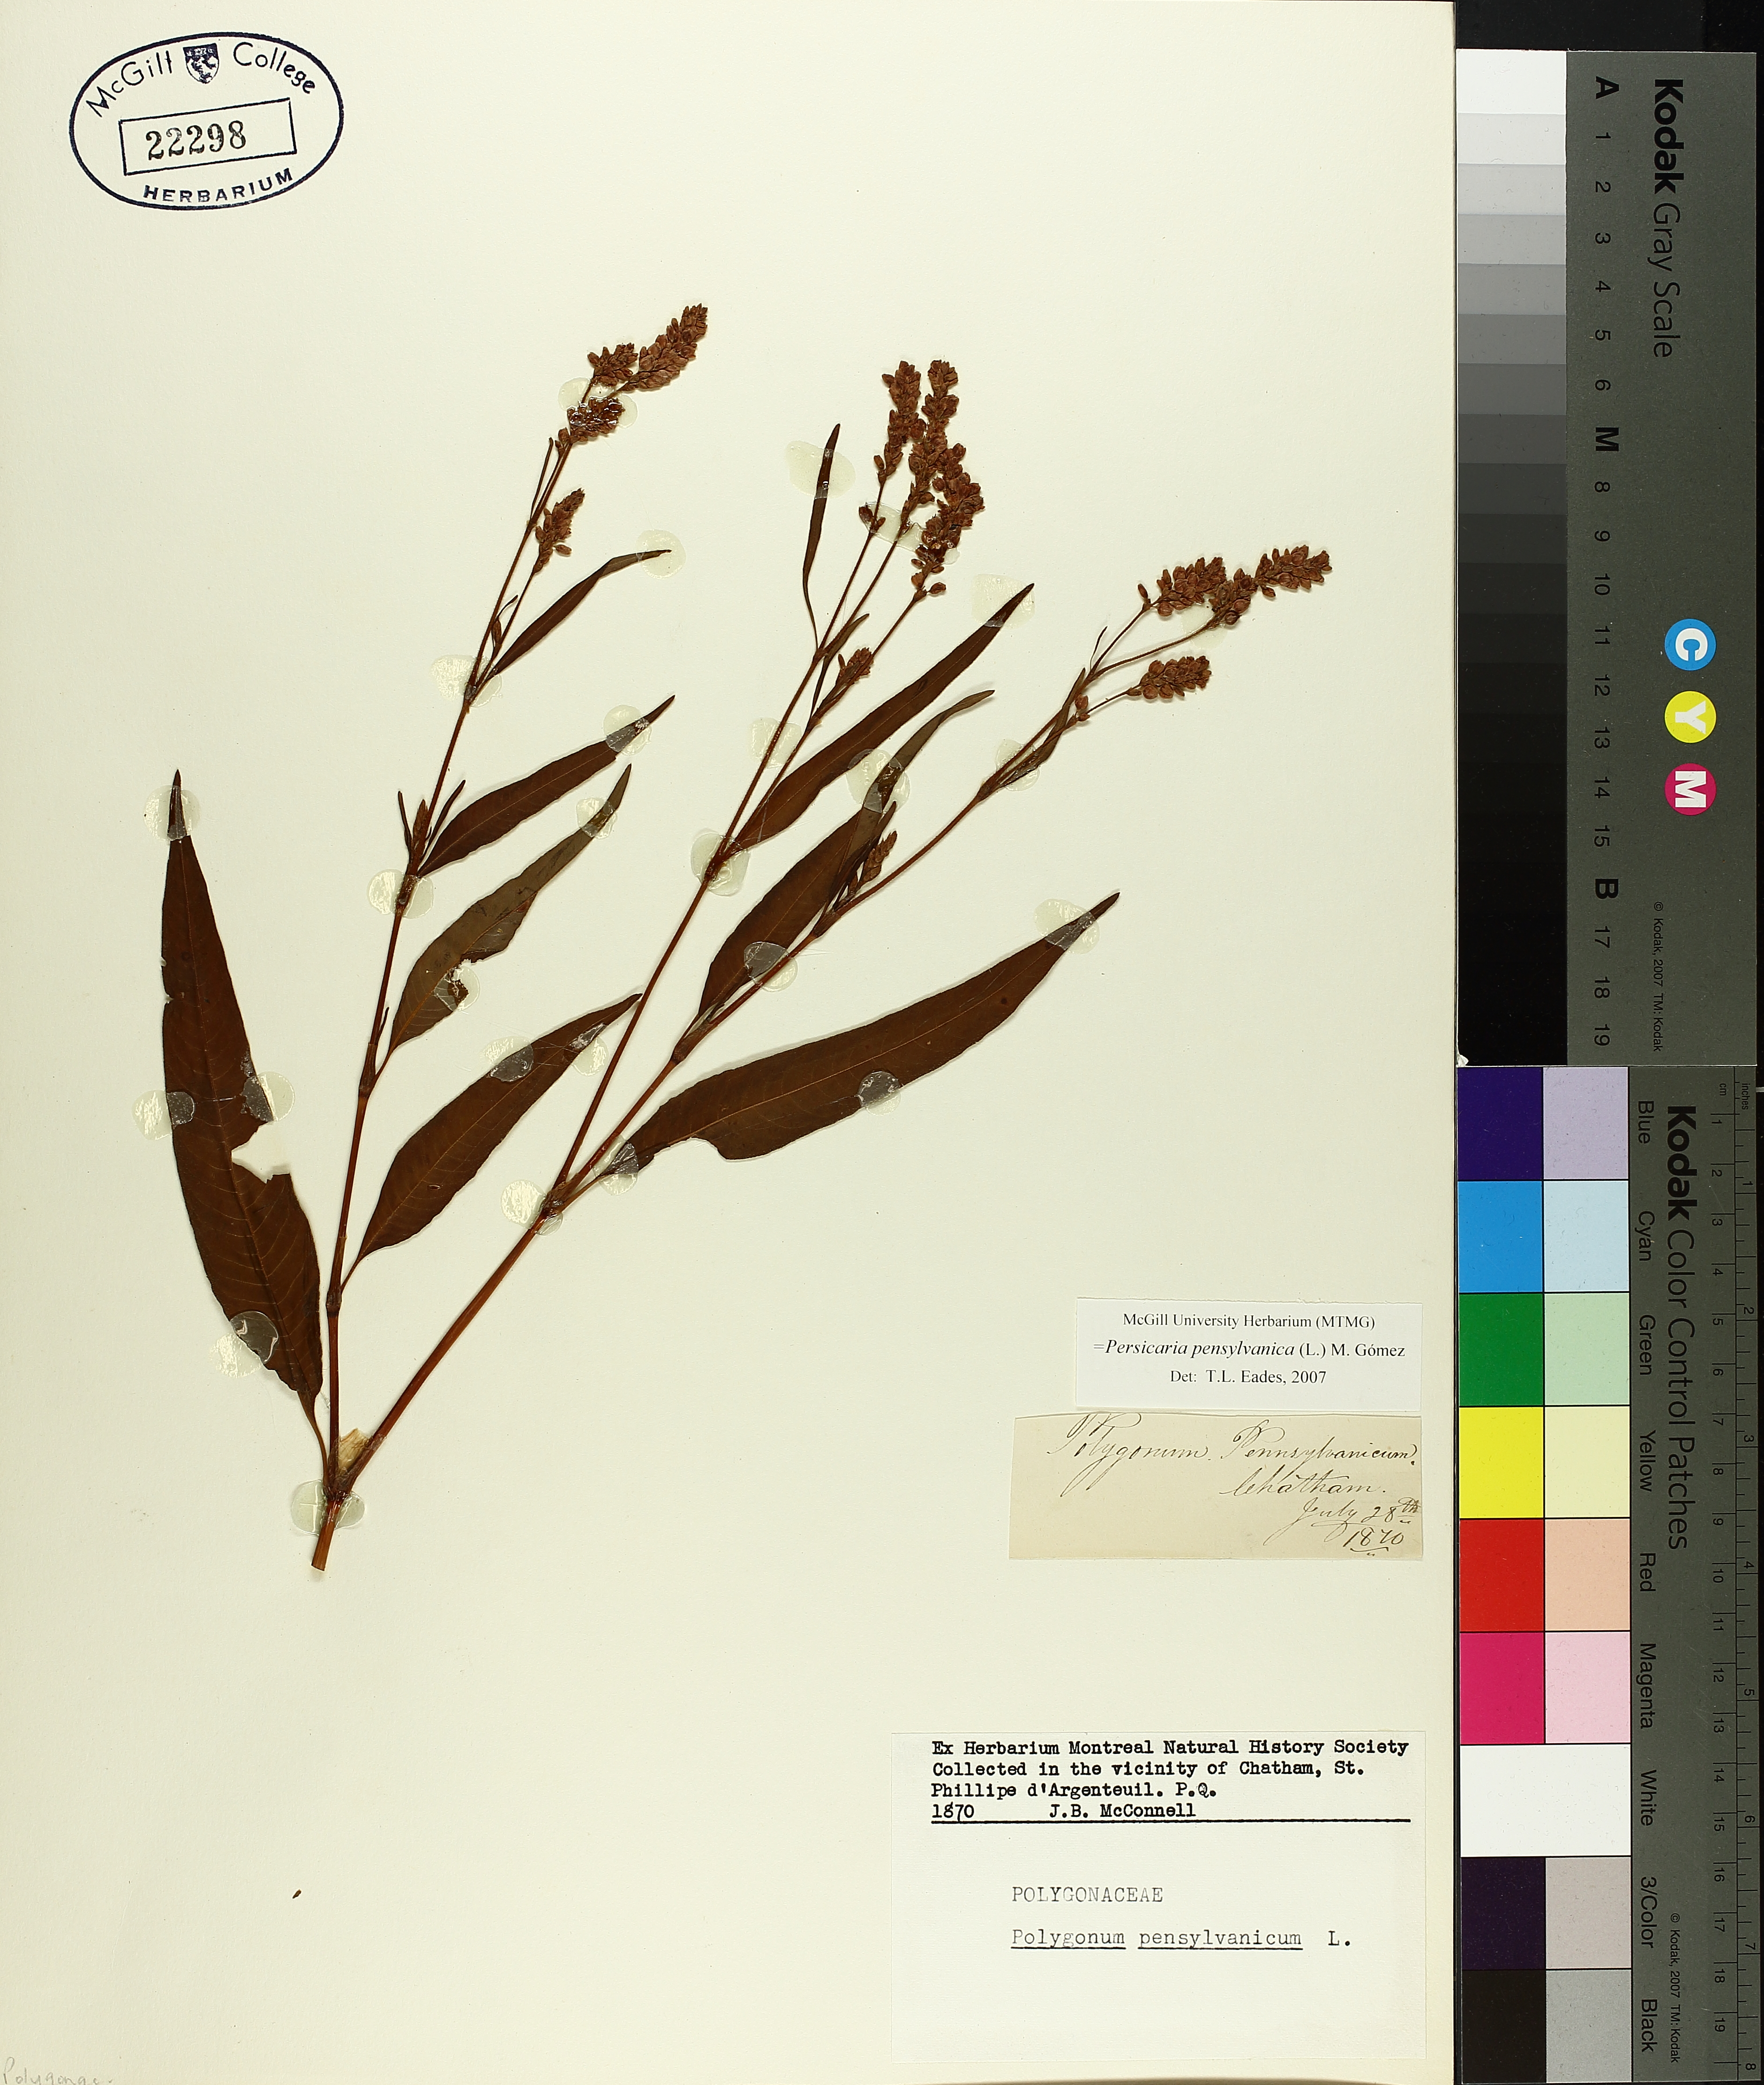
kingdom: Plantae
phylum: Tracheophyta
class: Magnoliopsida
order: Caryophyllales
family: Polygonaceae
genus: Persicaria
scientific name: Persicaria bungeana
